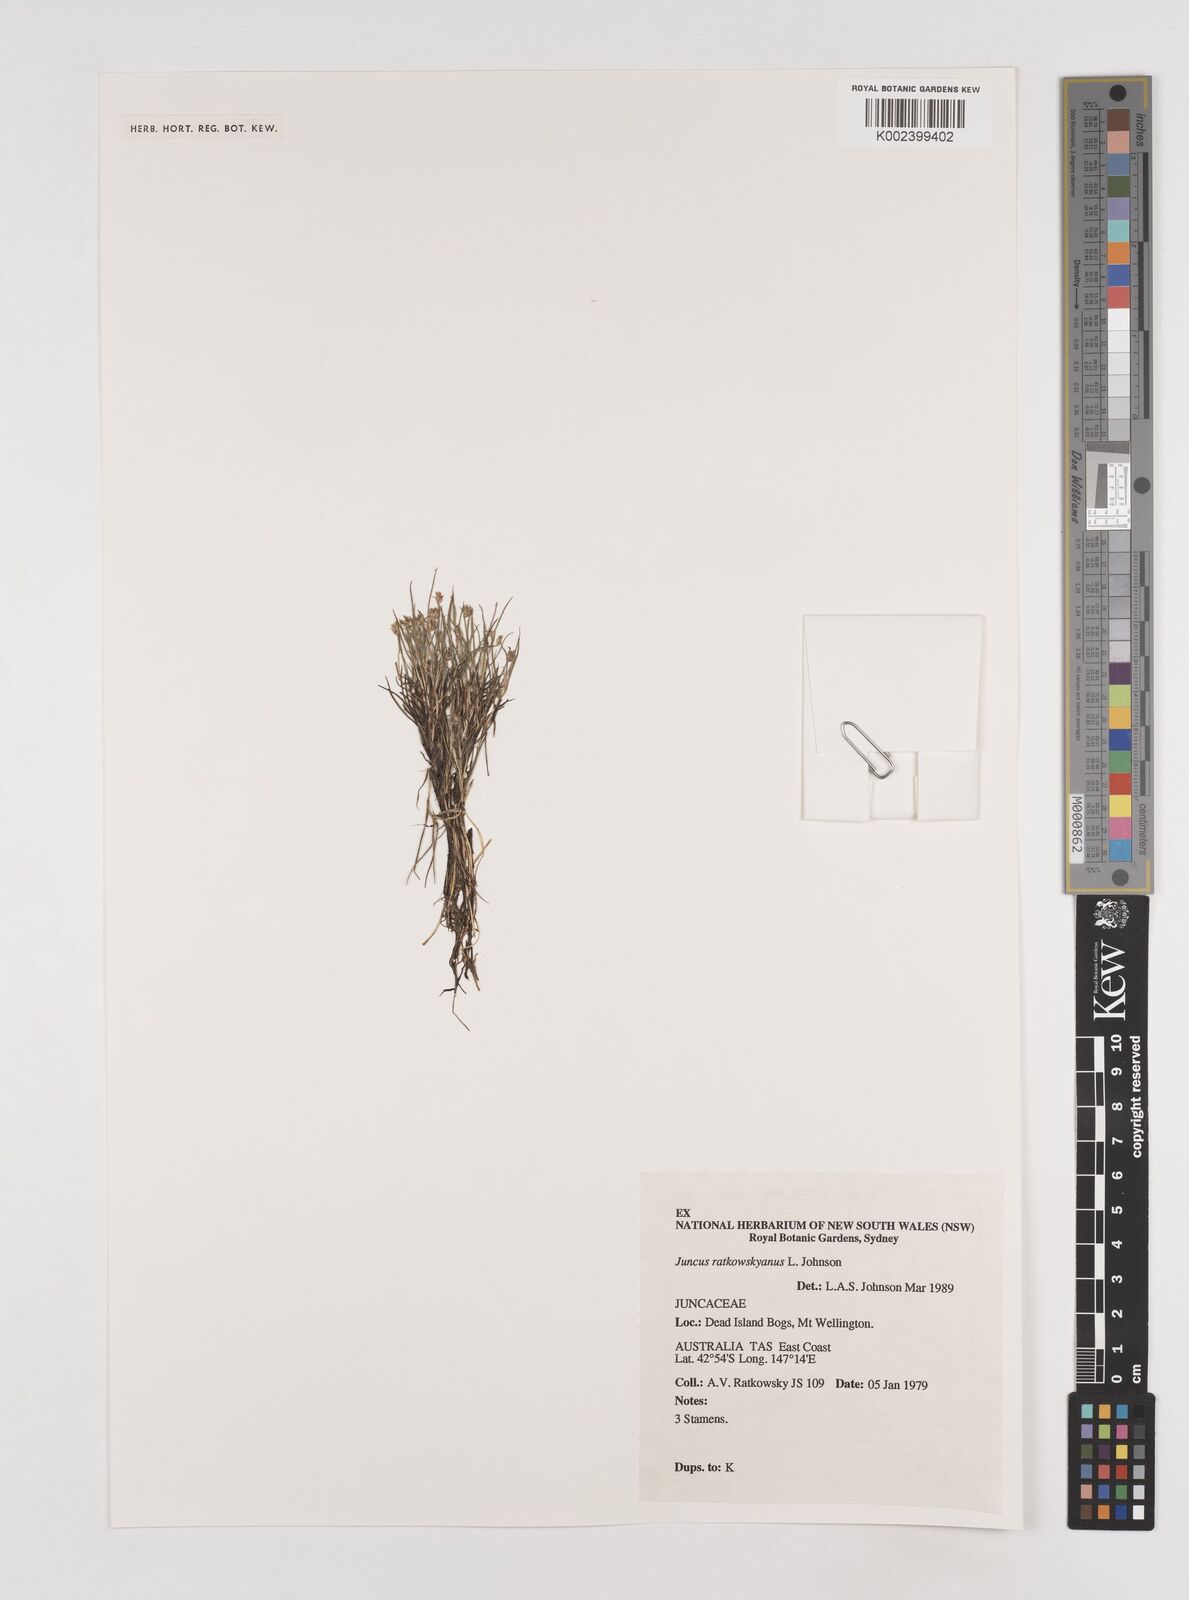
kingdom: Plantae
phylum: Tracheophyta
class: Liliopsida
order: Poales
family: Juncaceae
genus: Juncus
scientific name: Juncus ratkowskyanus
